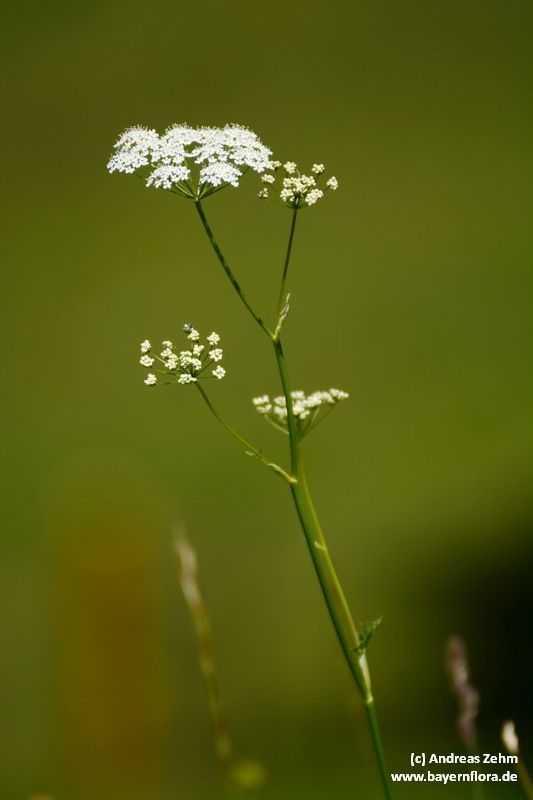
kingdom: Plantae
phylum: Tracheophyta
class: Magnoliopsida
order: Apiales
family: Apiaceae
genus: Pimpinella
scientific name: Pimpinella major
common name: Greater burnet-saxifrage
